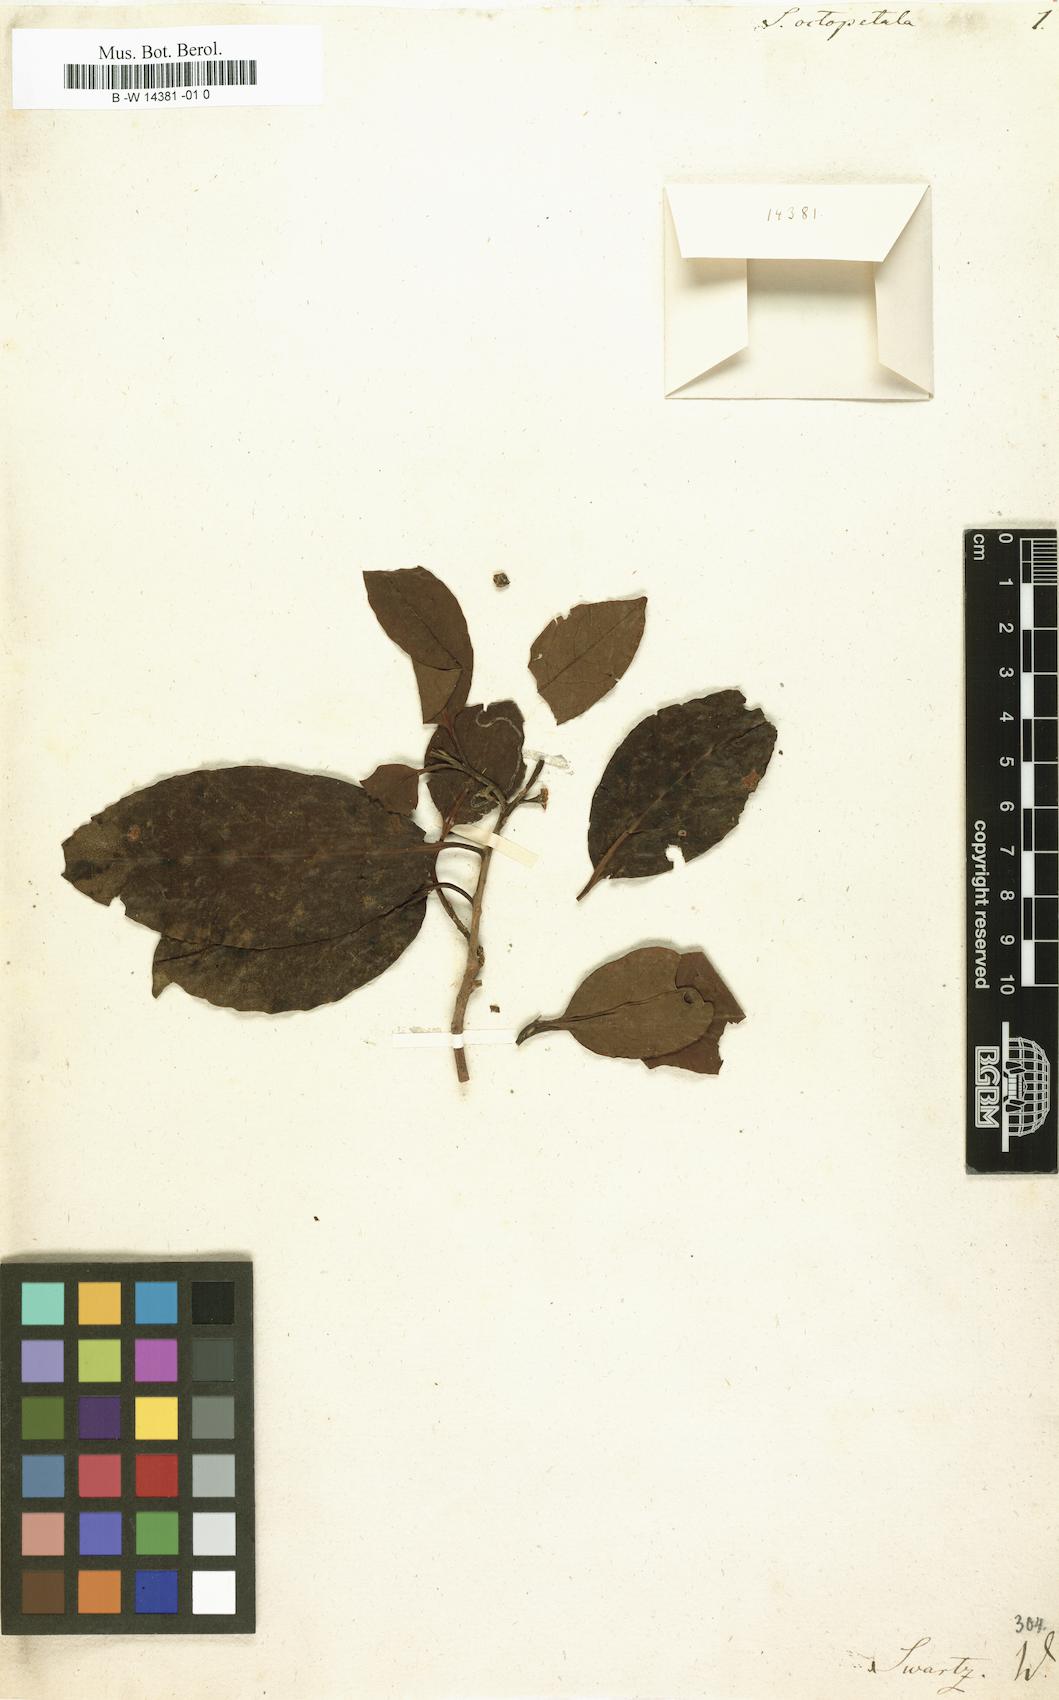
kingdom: Plantae
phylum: Tracheophyta
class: Magnoliopsida
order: Ericales
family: Symplocaceae
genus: Symplocos
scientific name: Symplocos octopetala
